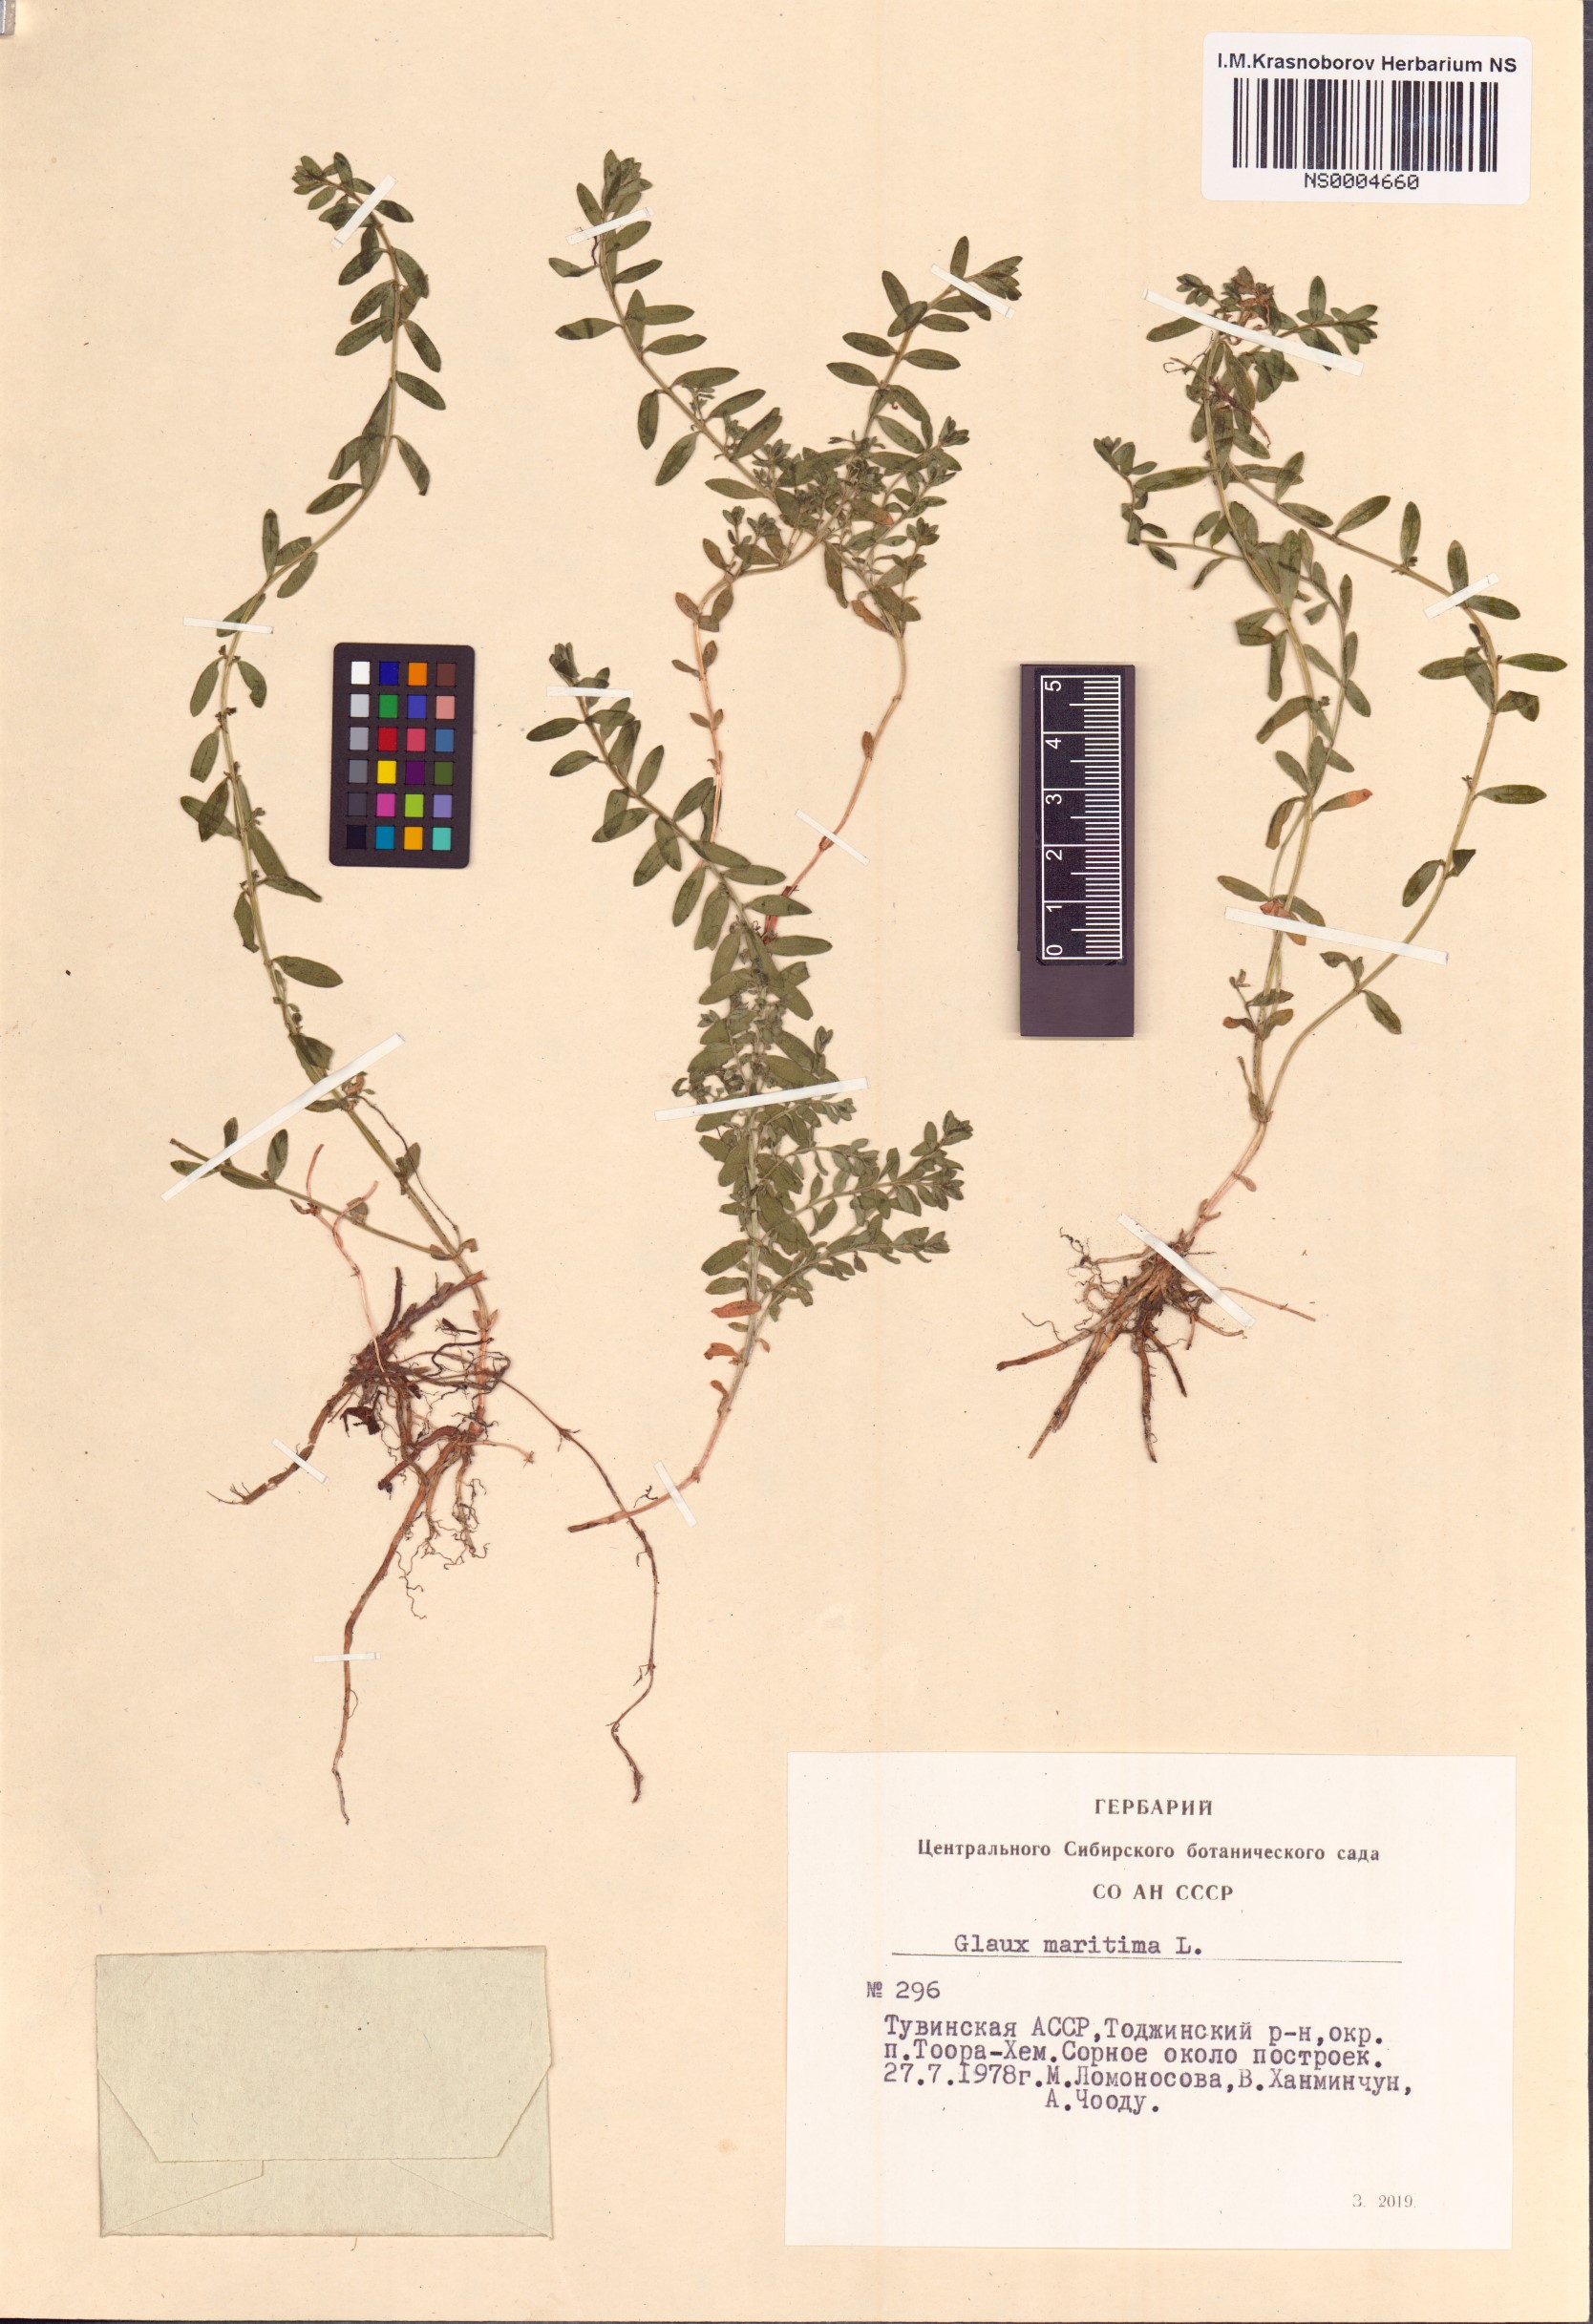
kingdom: Plantae
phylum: Tracheophyta
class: Magnoliopsida
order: Ericales
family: Primulaceae
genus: Lysimachia
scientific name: Lysimachia maritima
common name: Sea milkwort
